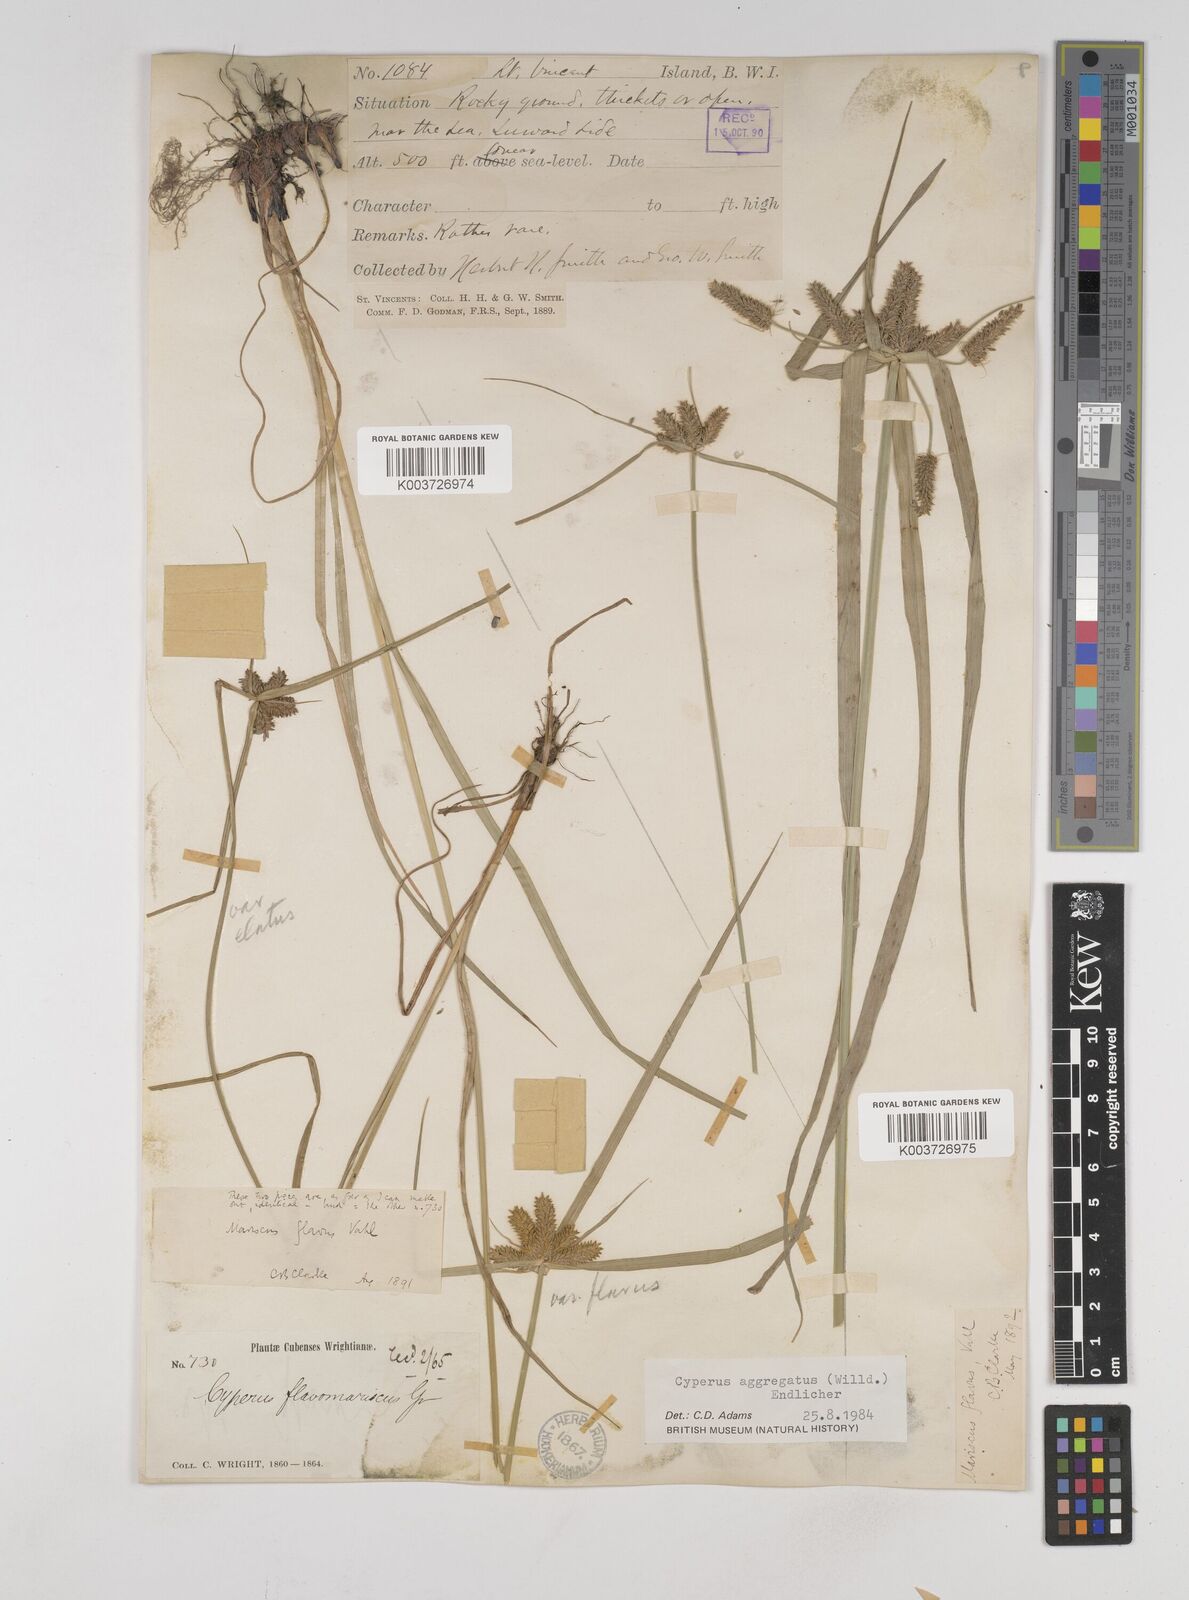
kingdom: Plantae
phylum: Tracheophyta
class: Liliopsida
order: Poales
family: Cyperaceae
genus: Cyperus
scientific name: Cyperus aggregatus
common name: Inflatedscale flatsedge
